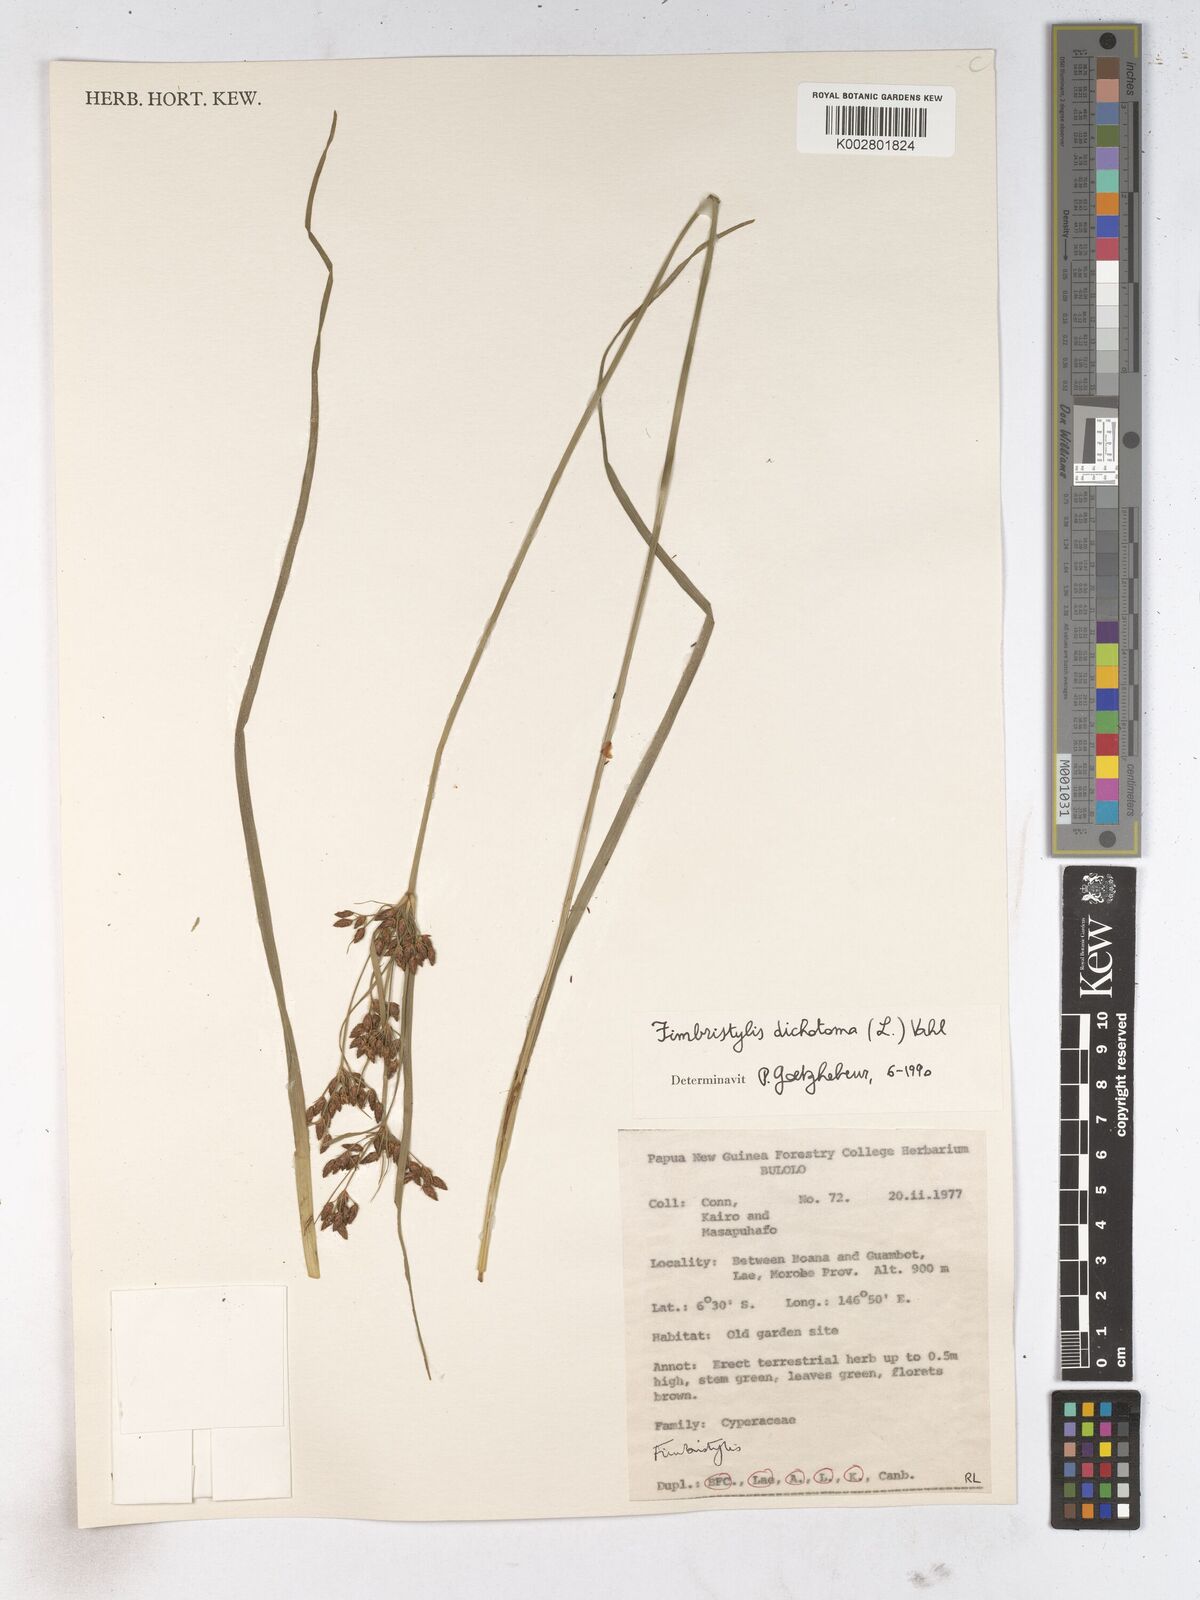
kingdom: Plantae
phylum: Tracheophyta
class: Liliopsida
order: Poales
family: Cyperaceae
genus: Fimbristylis
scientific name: Fimbristylis dichotoma
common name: Forked fimbry
